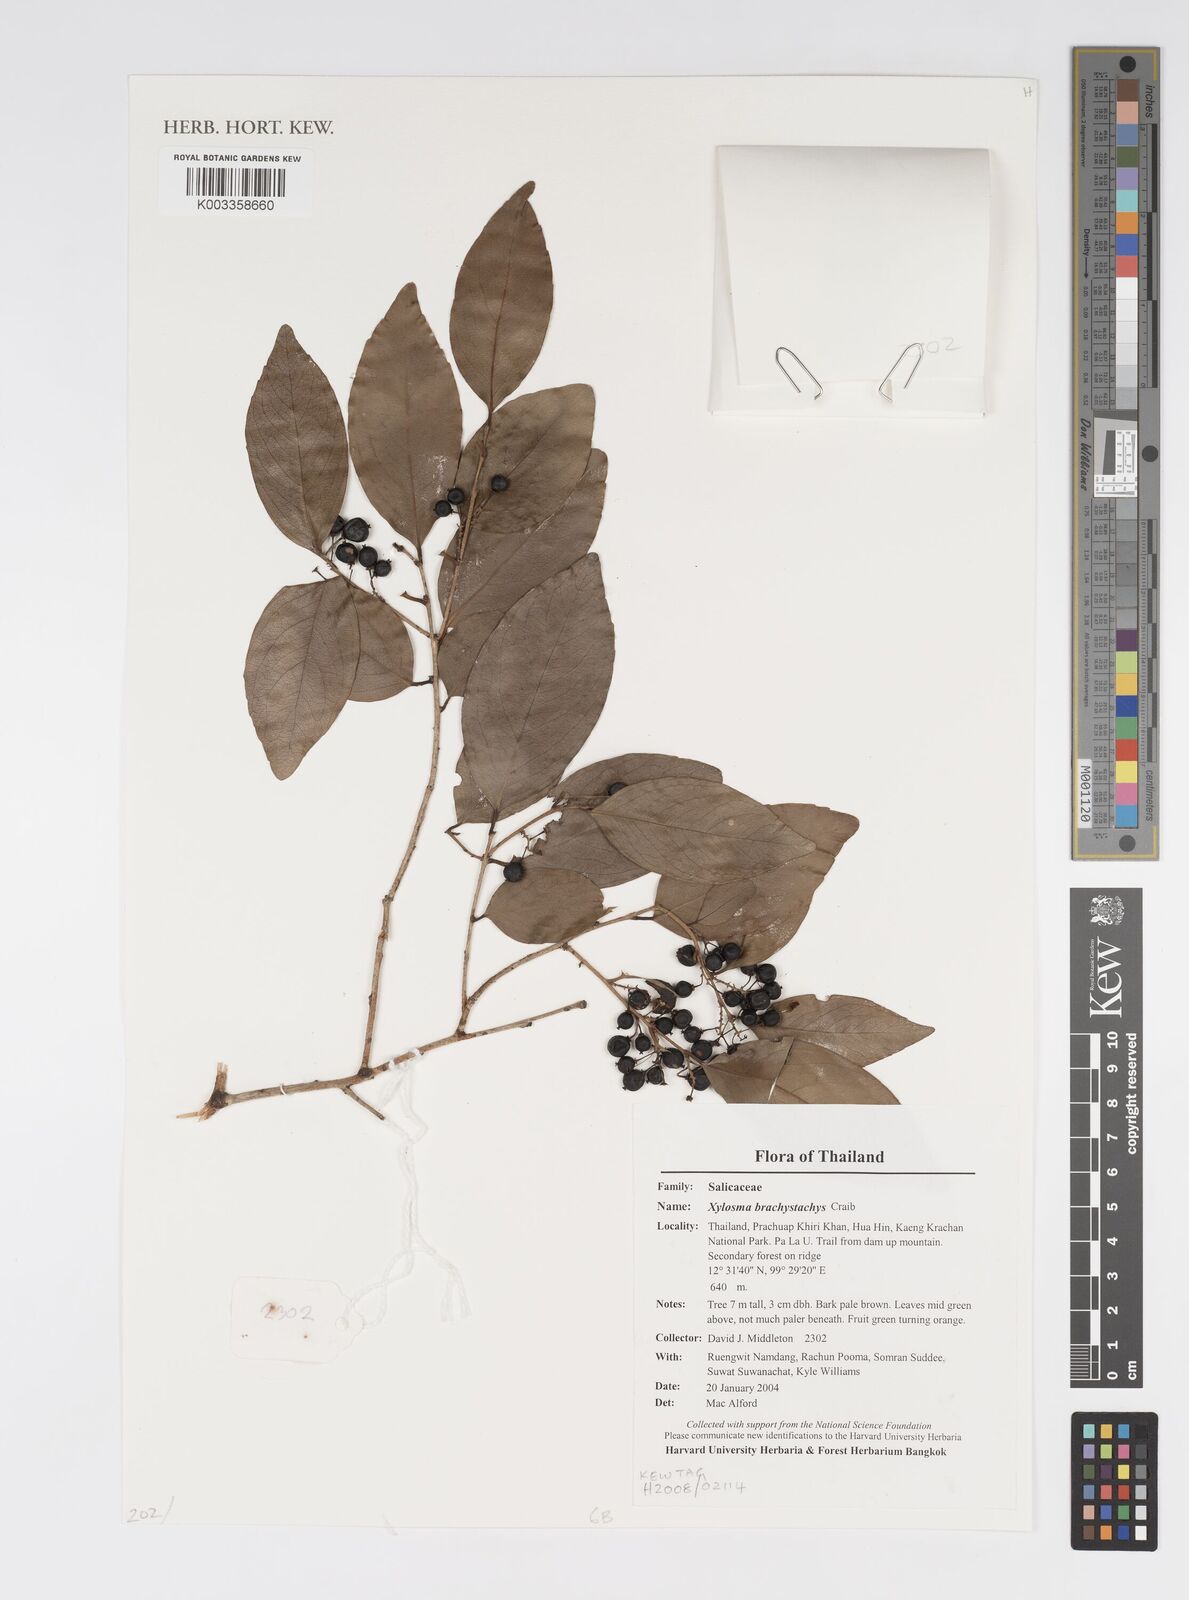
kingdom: Plantae
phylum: Tracheophyta
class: Magnoliopsida
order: Malpighiales
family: Salicaceae
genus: Xylosma
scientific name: Xylosma brachystachys
